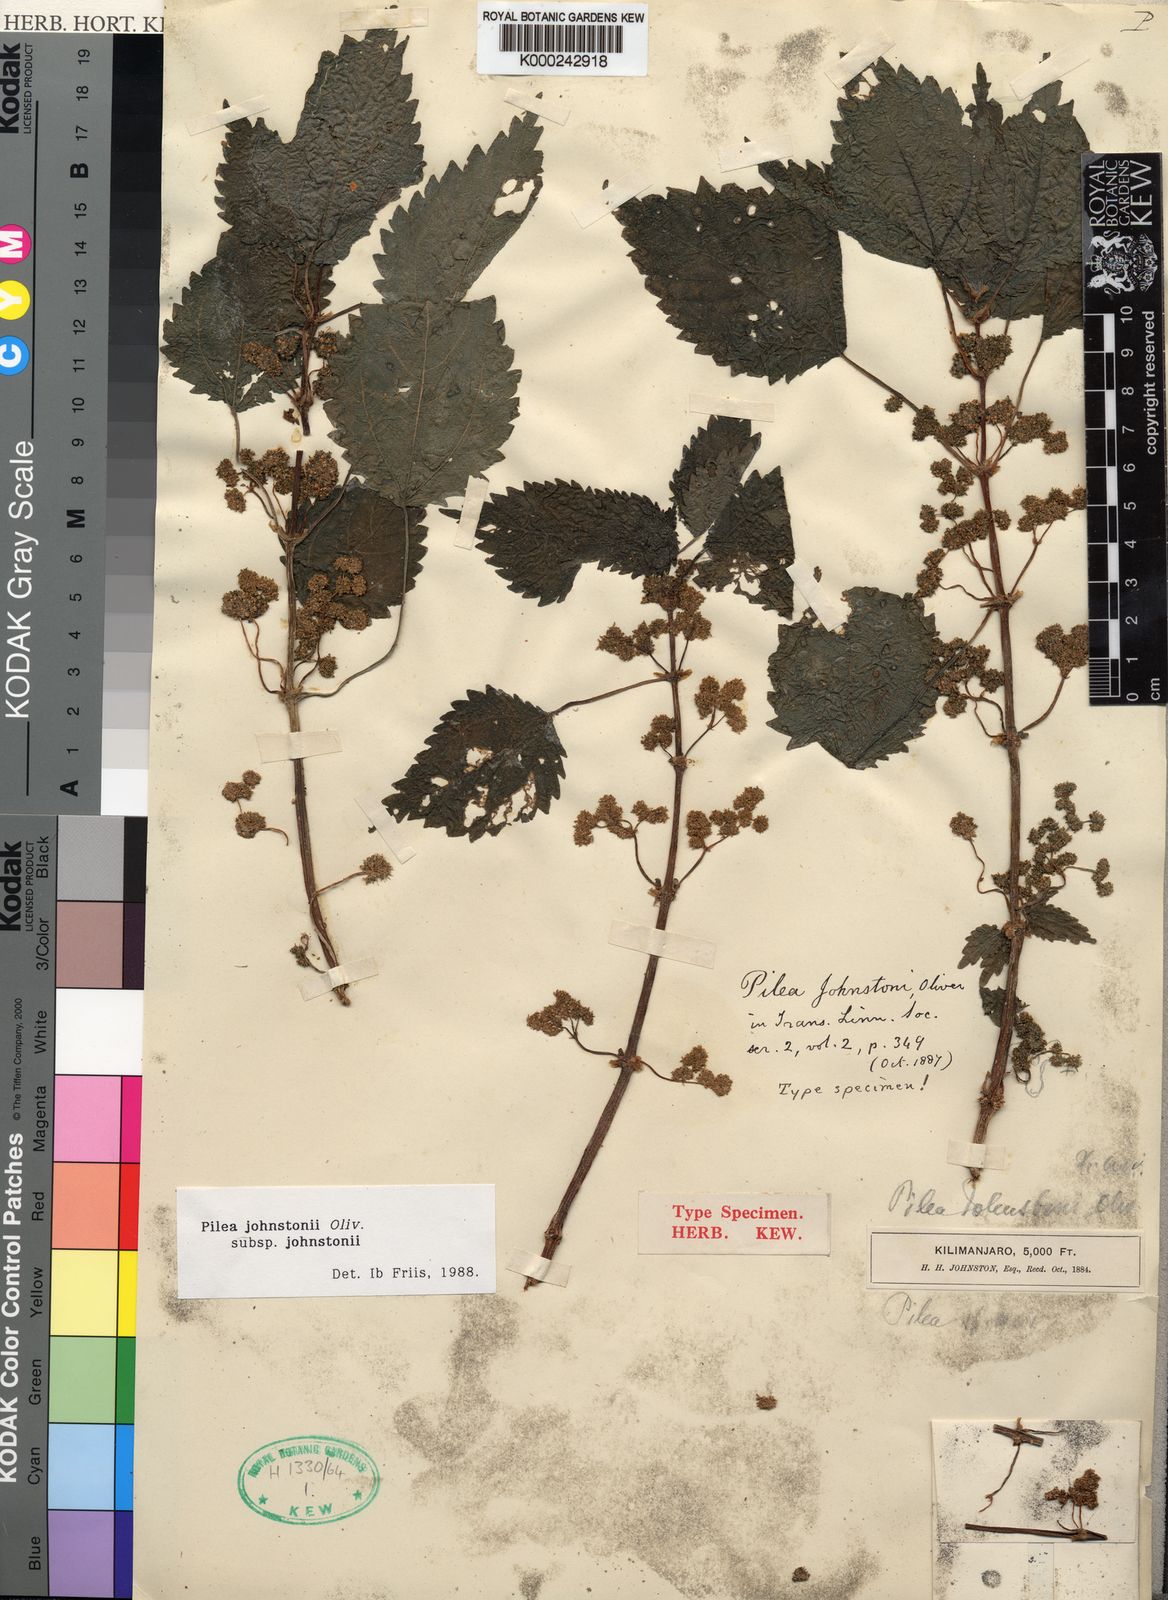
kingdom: Plantae
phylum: Tracheophyta
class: Magnoliopsida
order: Rosales
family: Urticaceae
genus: Pilea
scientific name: Pilea johnstonii
